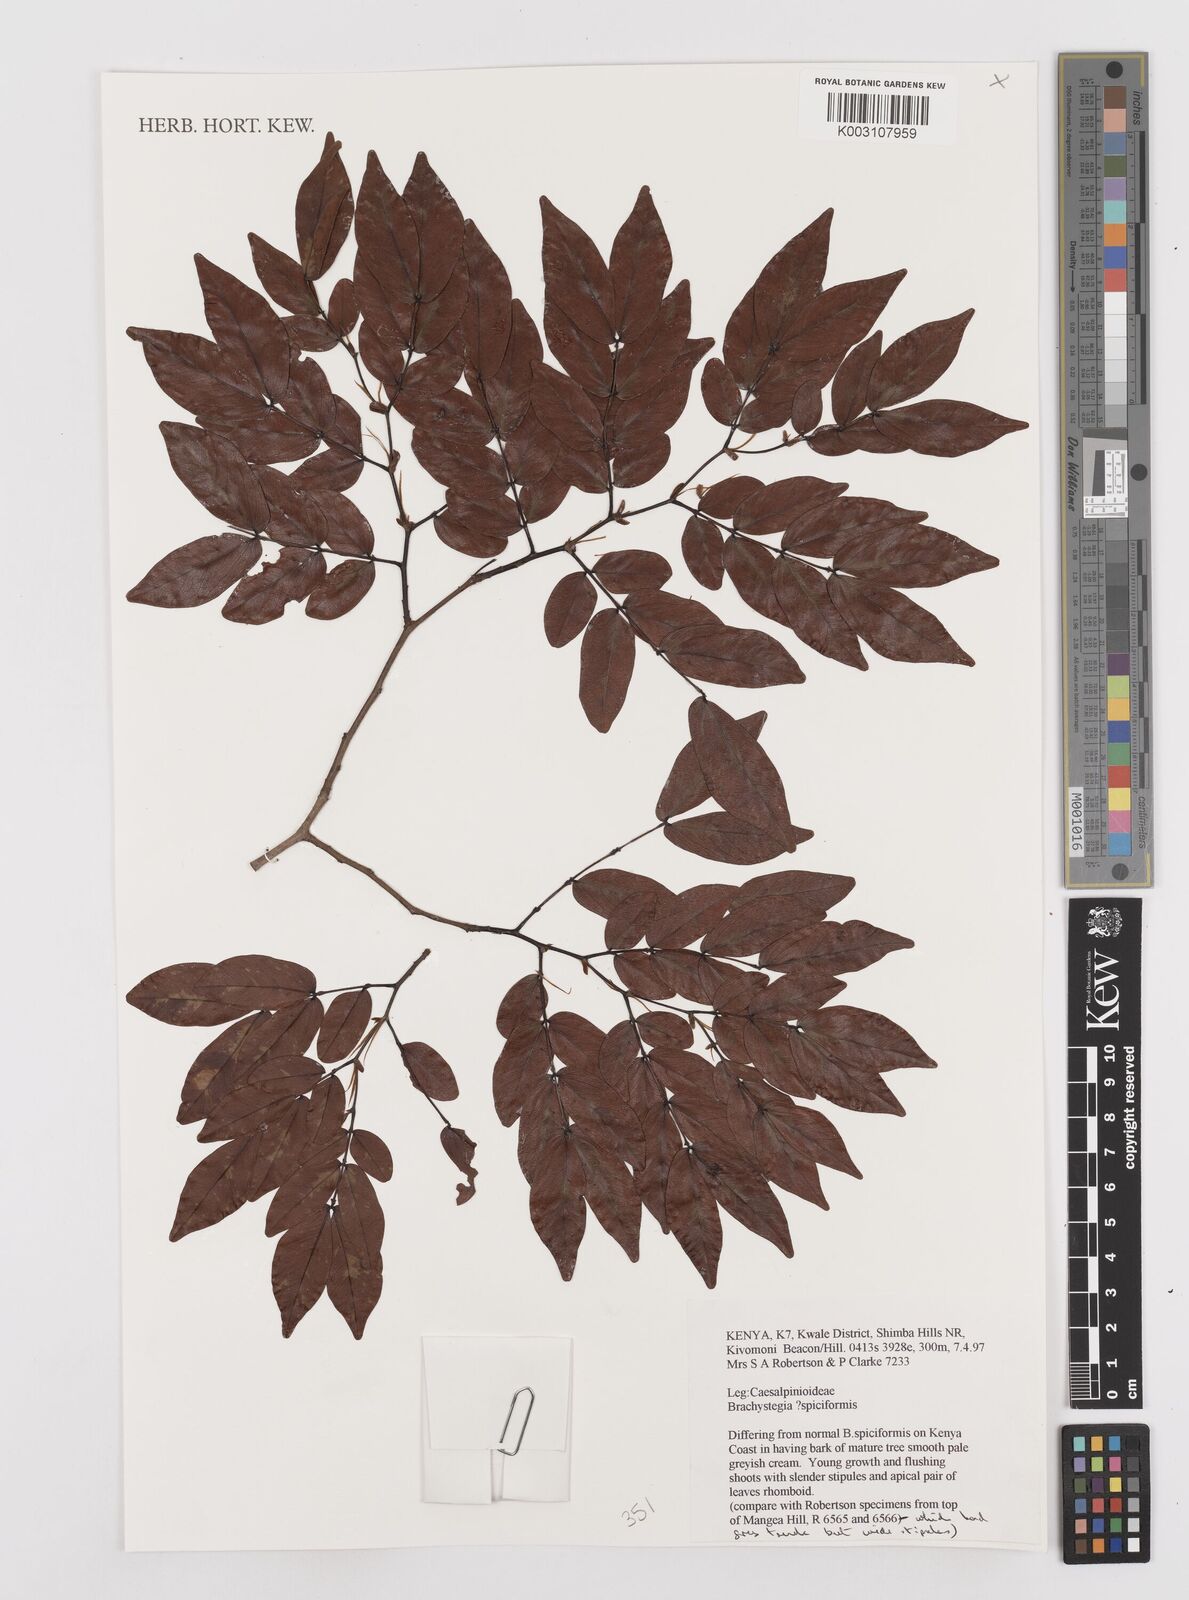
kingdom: Plantae
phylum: Tracheophyta
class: Magnoliopsida
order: Fabales
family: Fabaceae
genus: Brachystegia
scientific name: Brachystegia spiciformis
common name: Zebrawood
